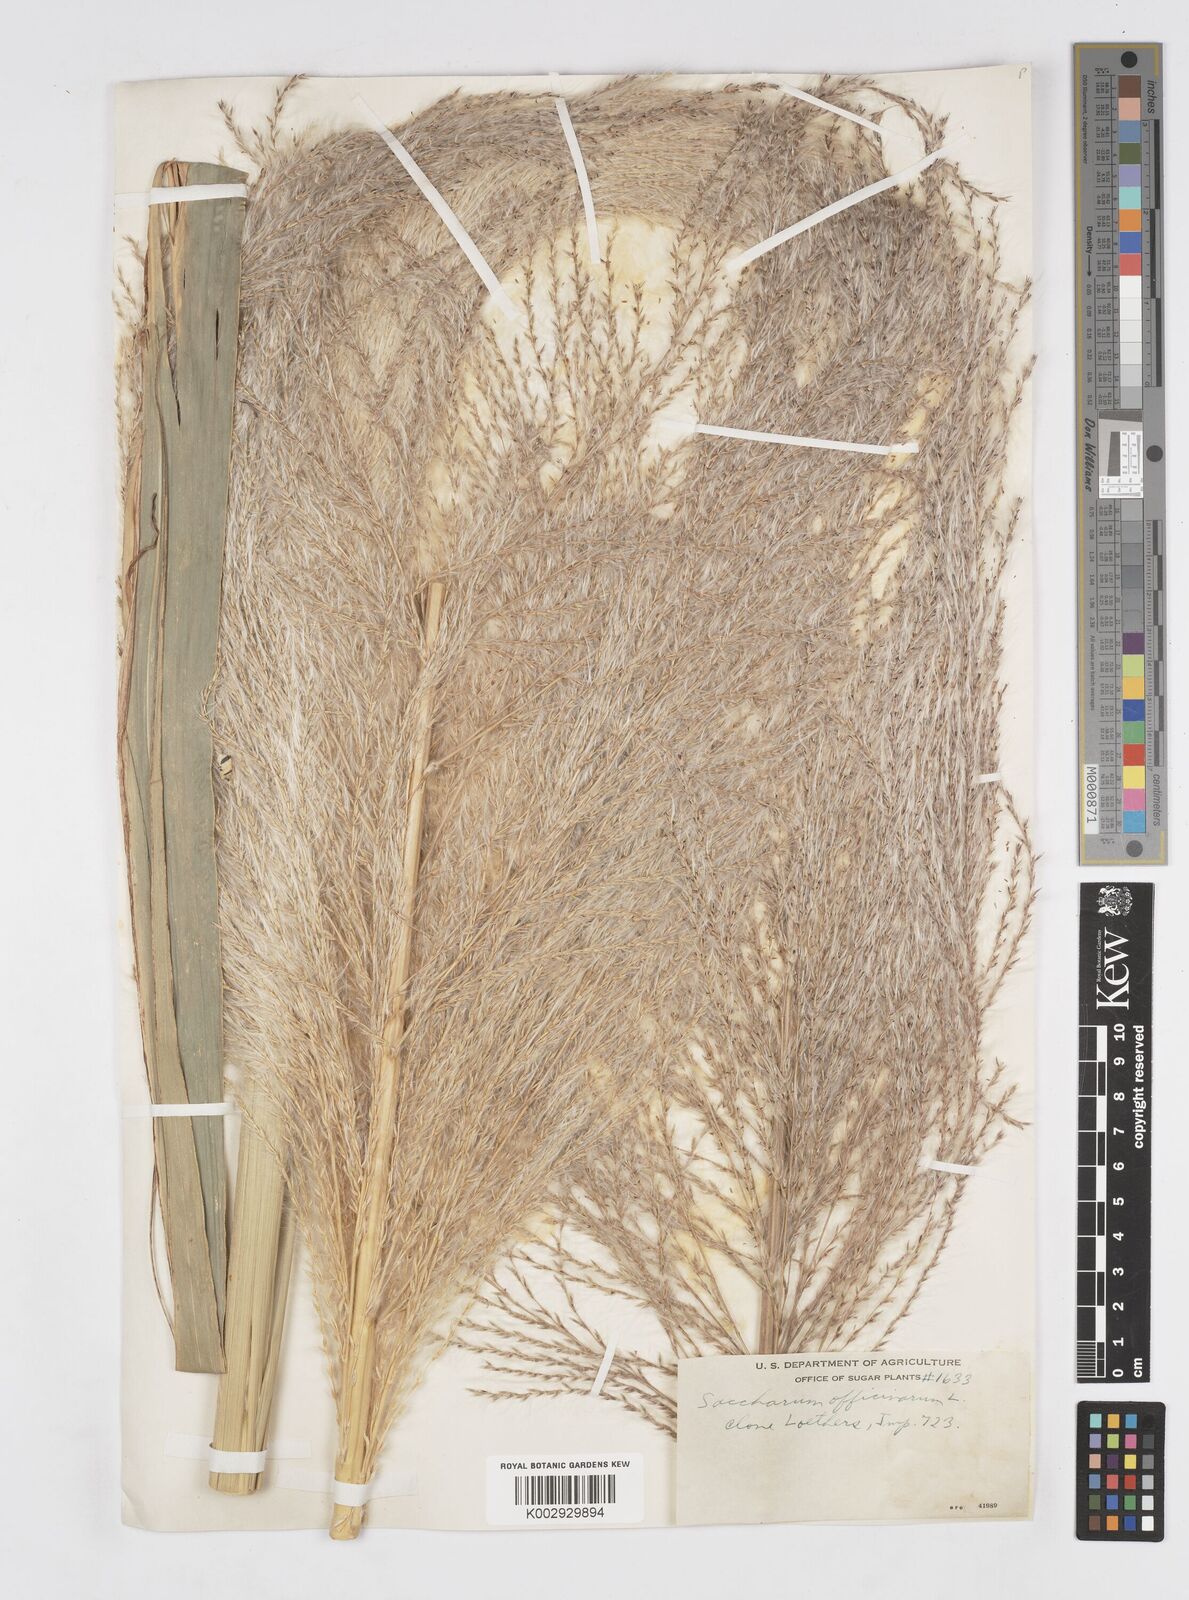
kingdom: Plantae
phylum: Tracheophyta
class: Liliopsida
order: Poales
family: Poaceae
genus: Saccharum
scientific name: Saccharum officinarum
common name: Sugarcane
